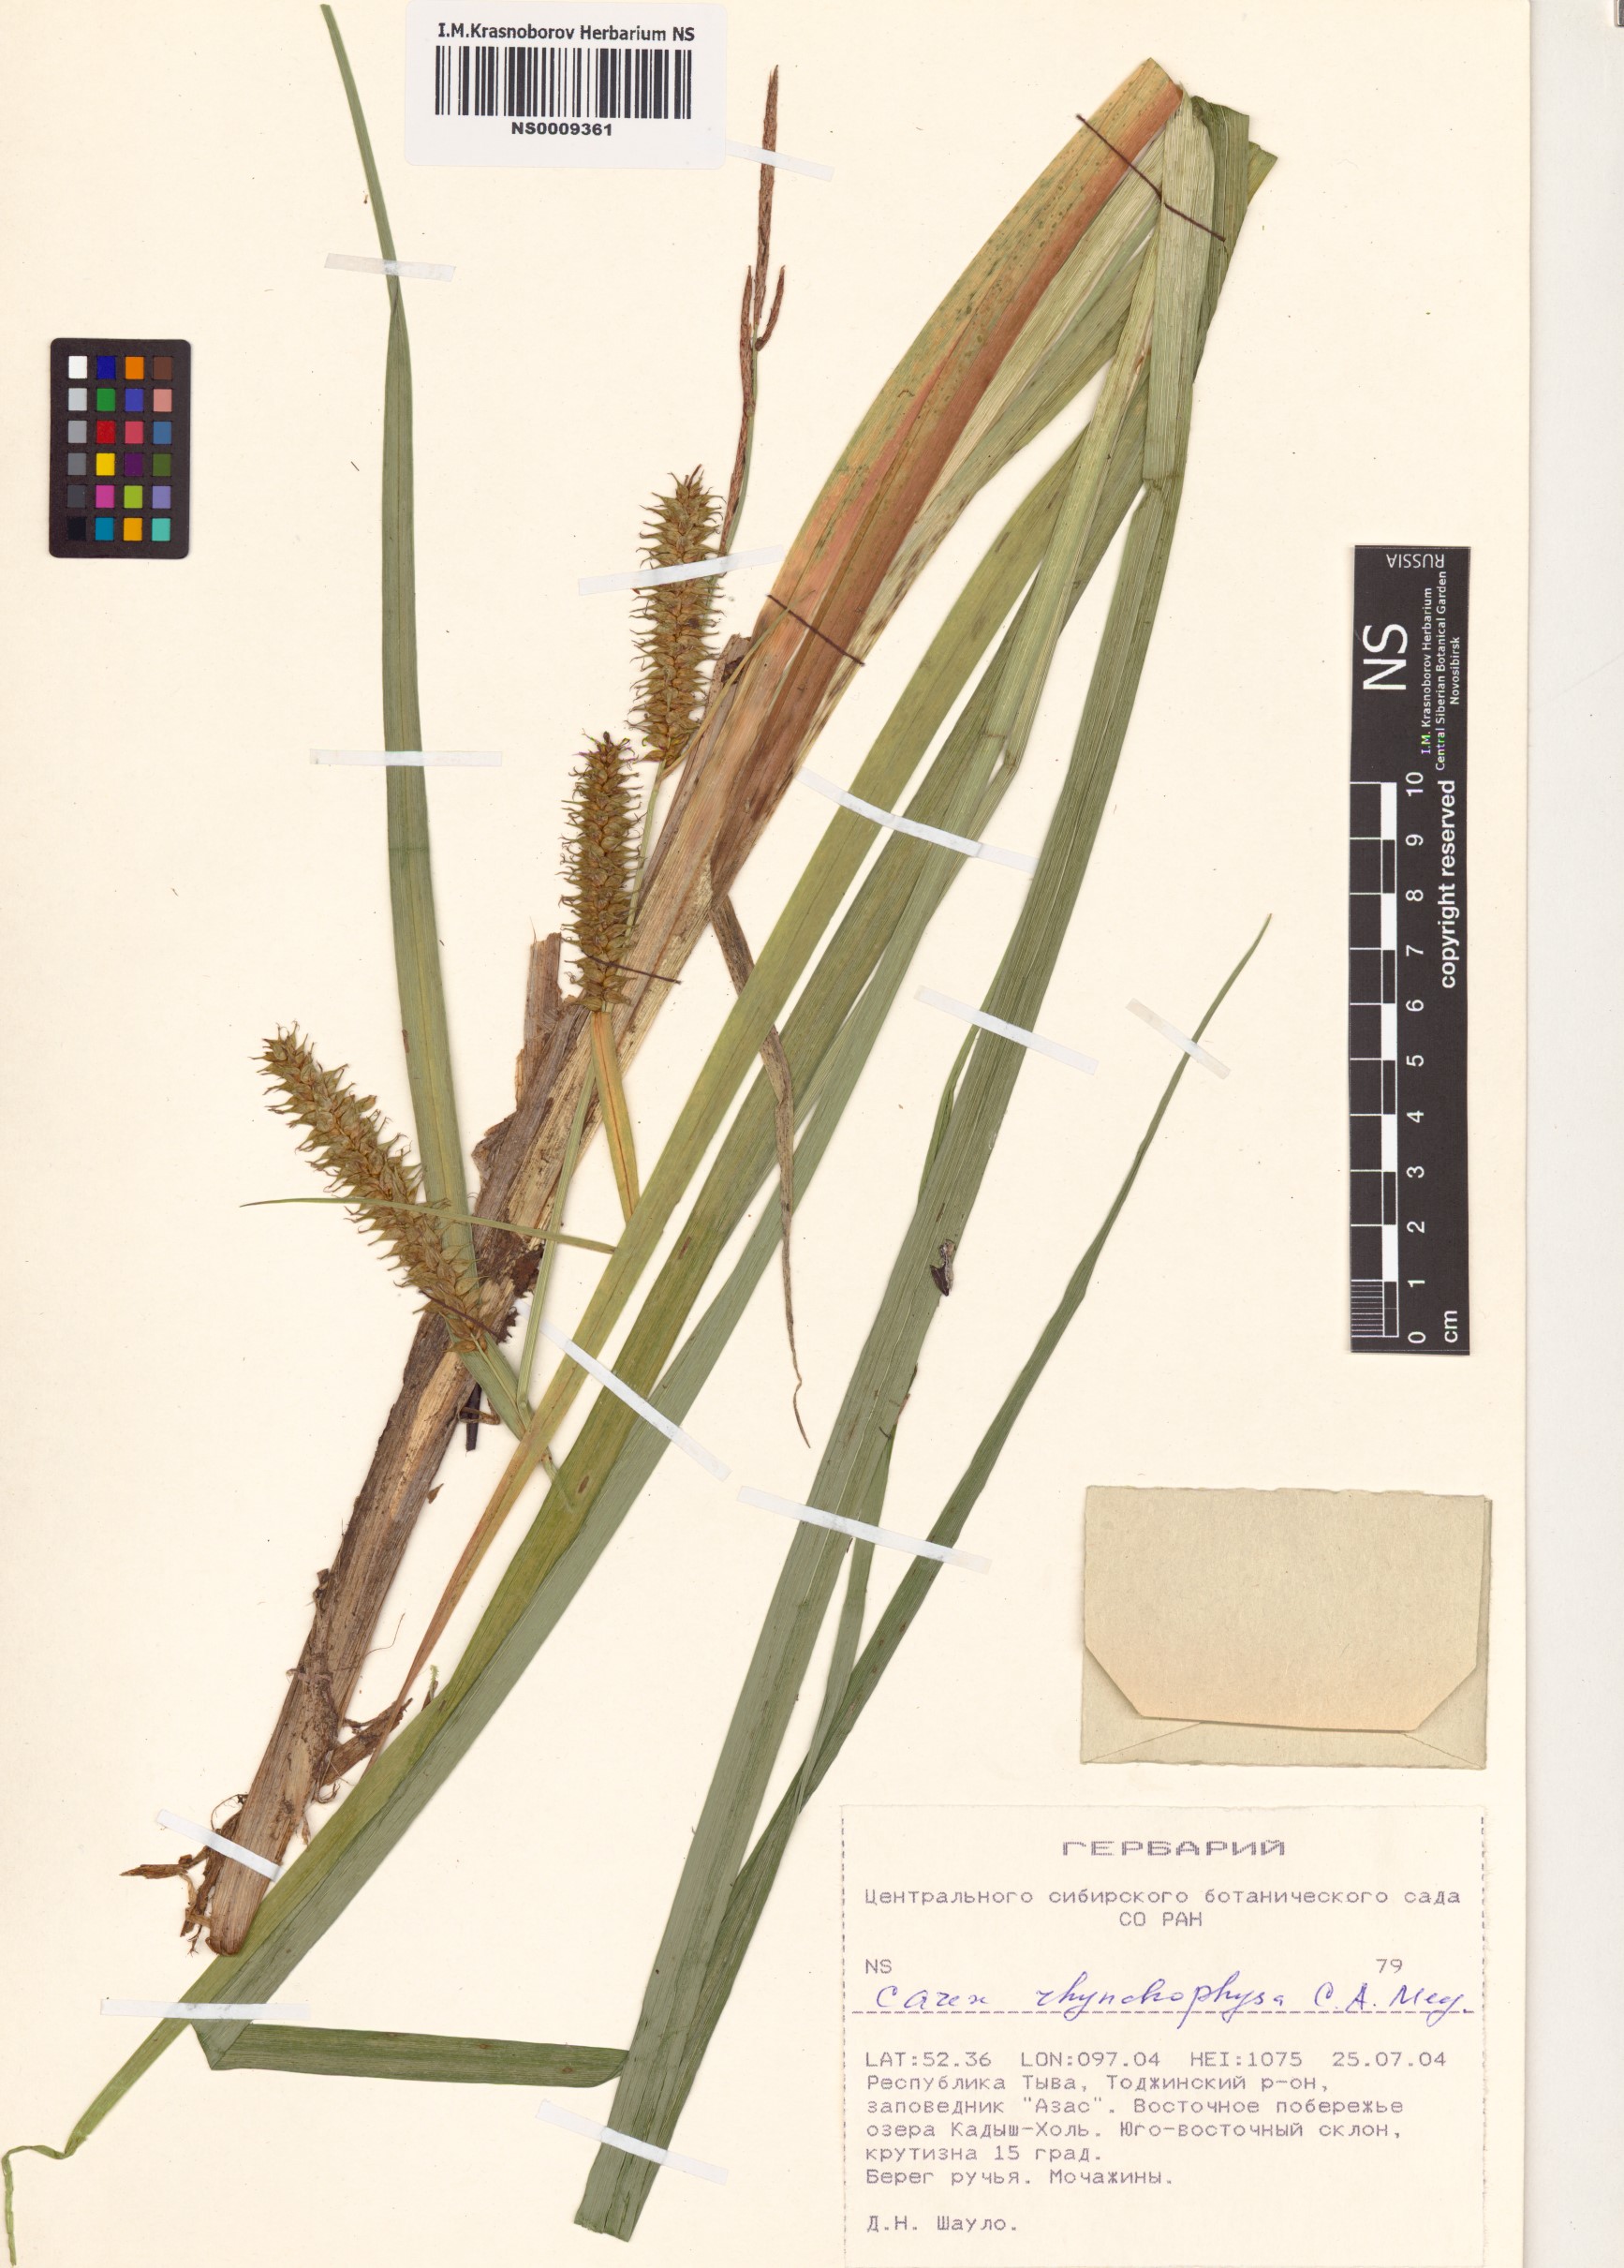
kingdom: Plantae
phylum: Tracheophyta
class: Liliopsida
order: Poales
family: Cyperaceae
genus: Carex
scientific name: Carex utriculata
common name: Beaked sedge
